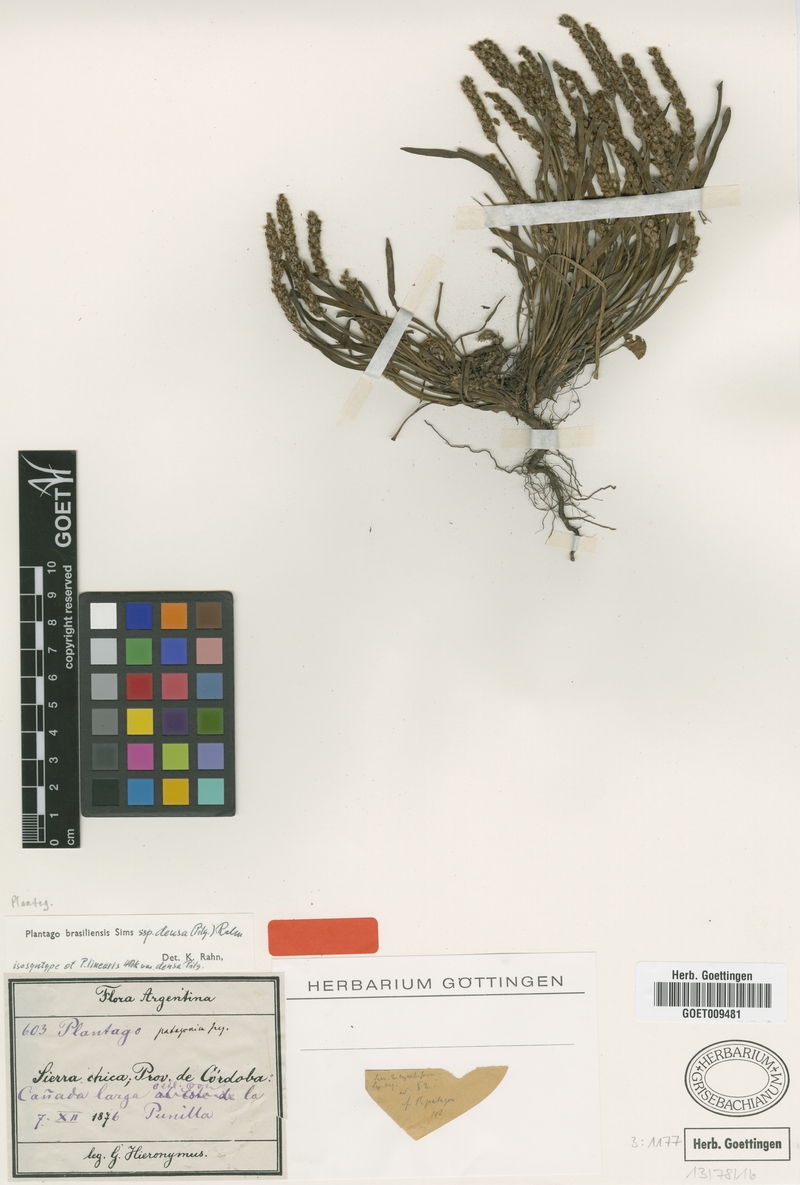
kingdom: Plantae
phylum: Tracheophyta
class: Magnoliopsida
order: Lamiales
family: Plantaginaceae
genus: Plantago
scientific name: Plantago densa
